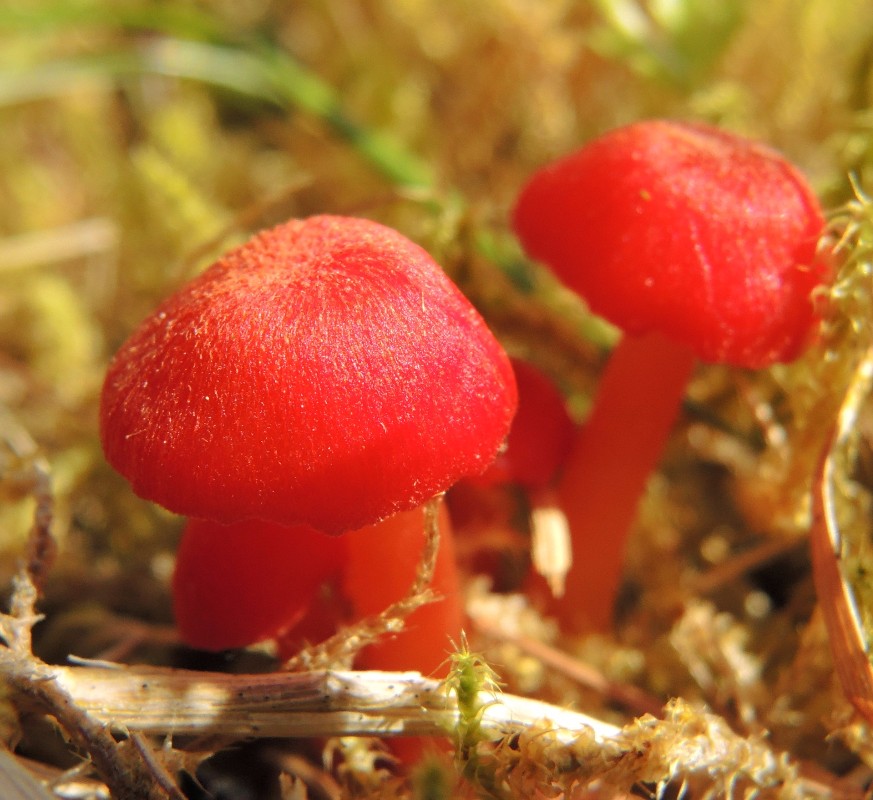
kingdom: Fungi
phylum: Basidiomycota
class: Agaricomycetes
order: Agaricales
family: Hygrophoraceae
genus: Hygrocybe
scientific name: Hygrocybe helobia
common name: hvidløgs-vokshat
